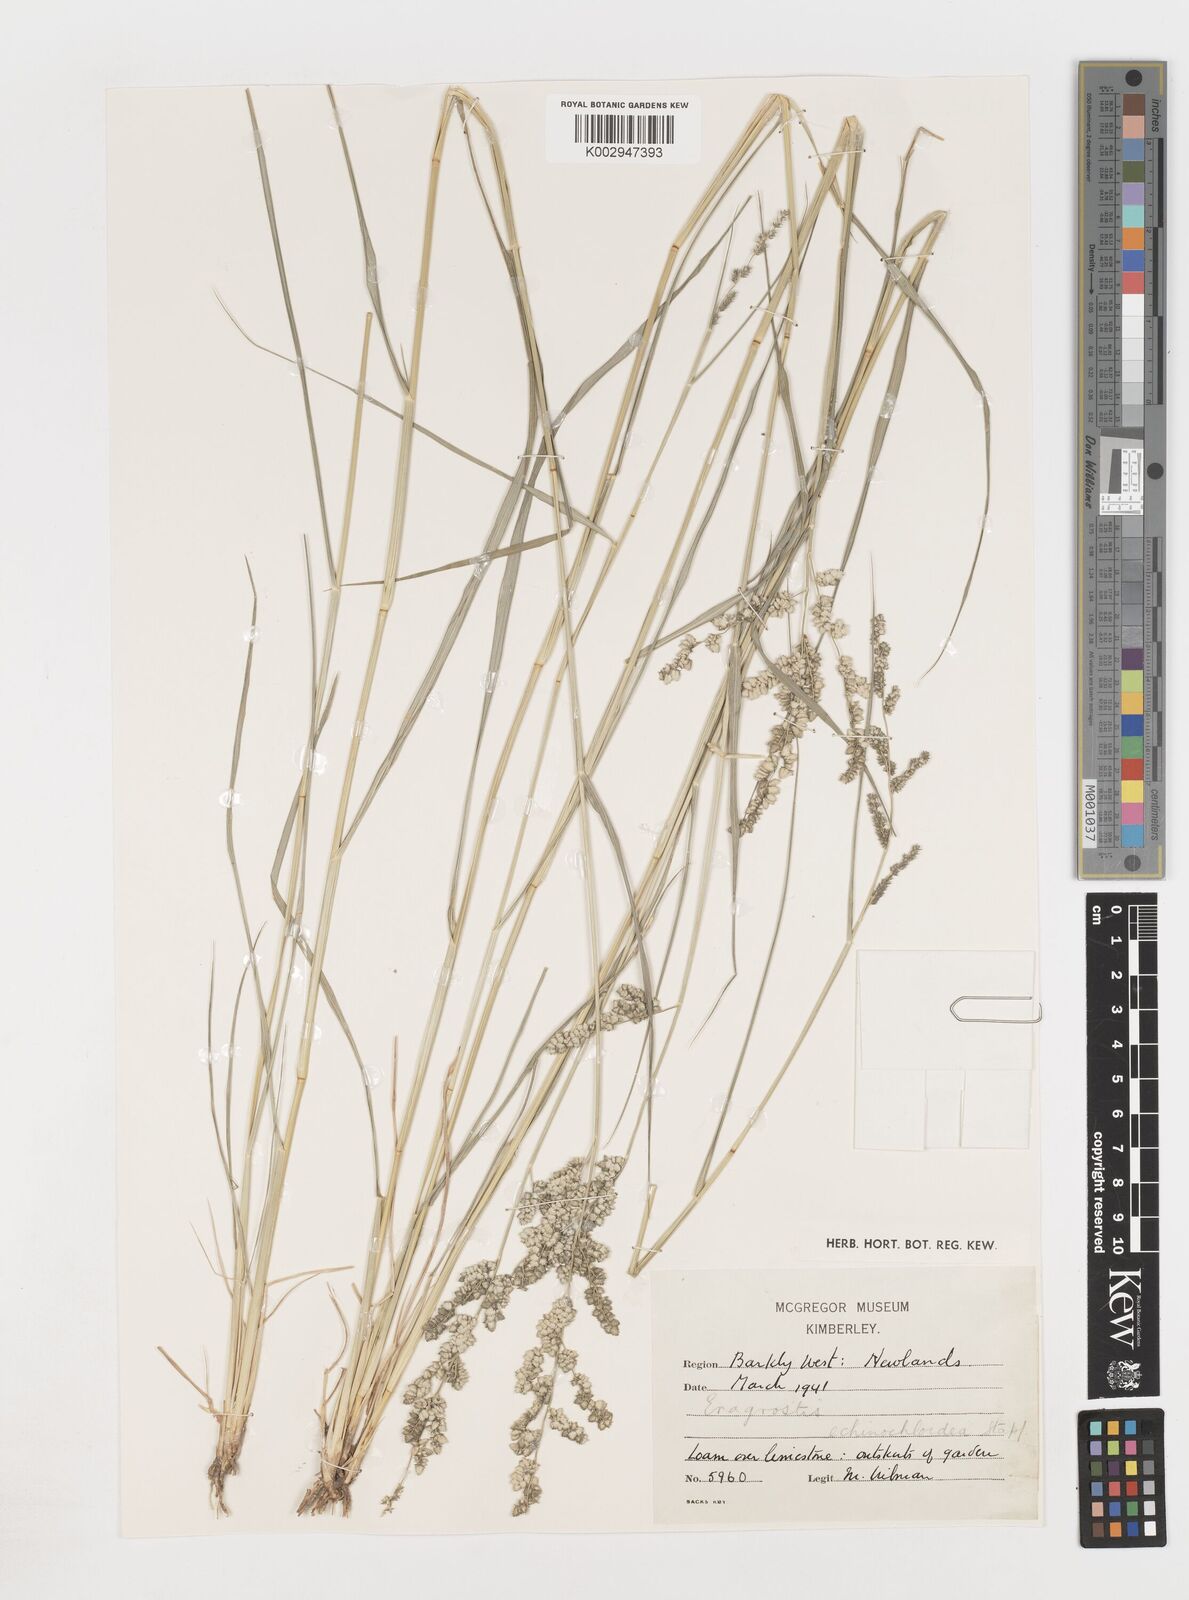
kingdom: Plantae
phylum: Tracheophyta
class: Liliopsida
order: Poales
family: Poaceae
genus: Eragrostis
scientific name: Eragrostis
